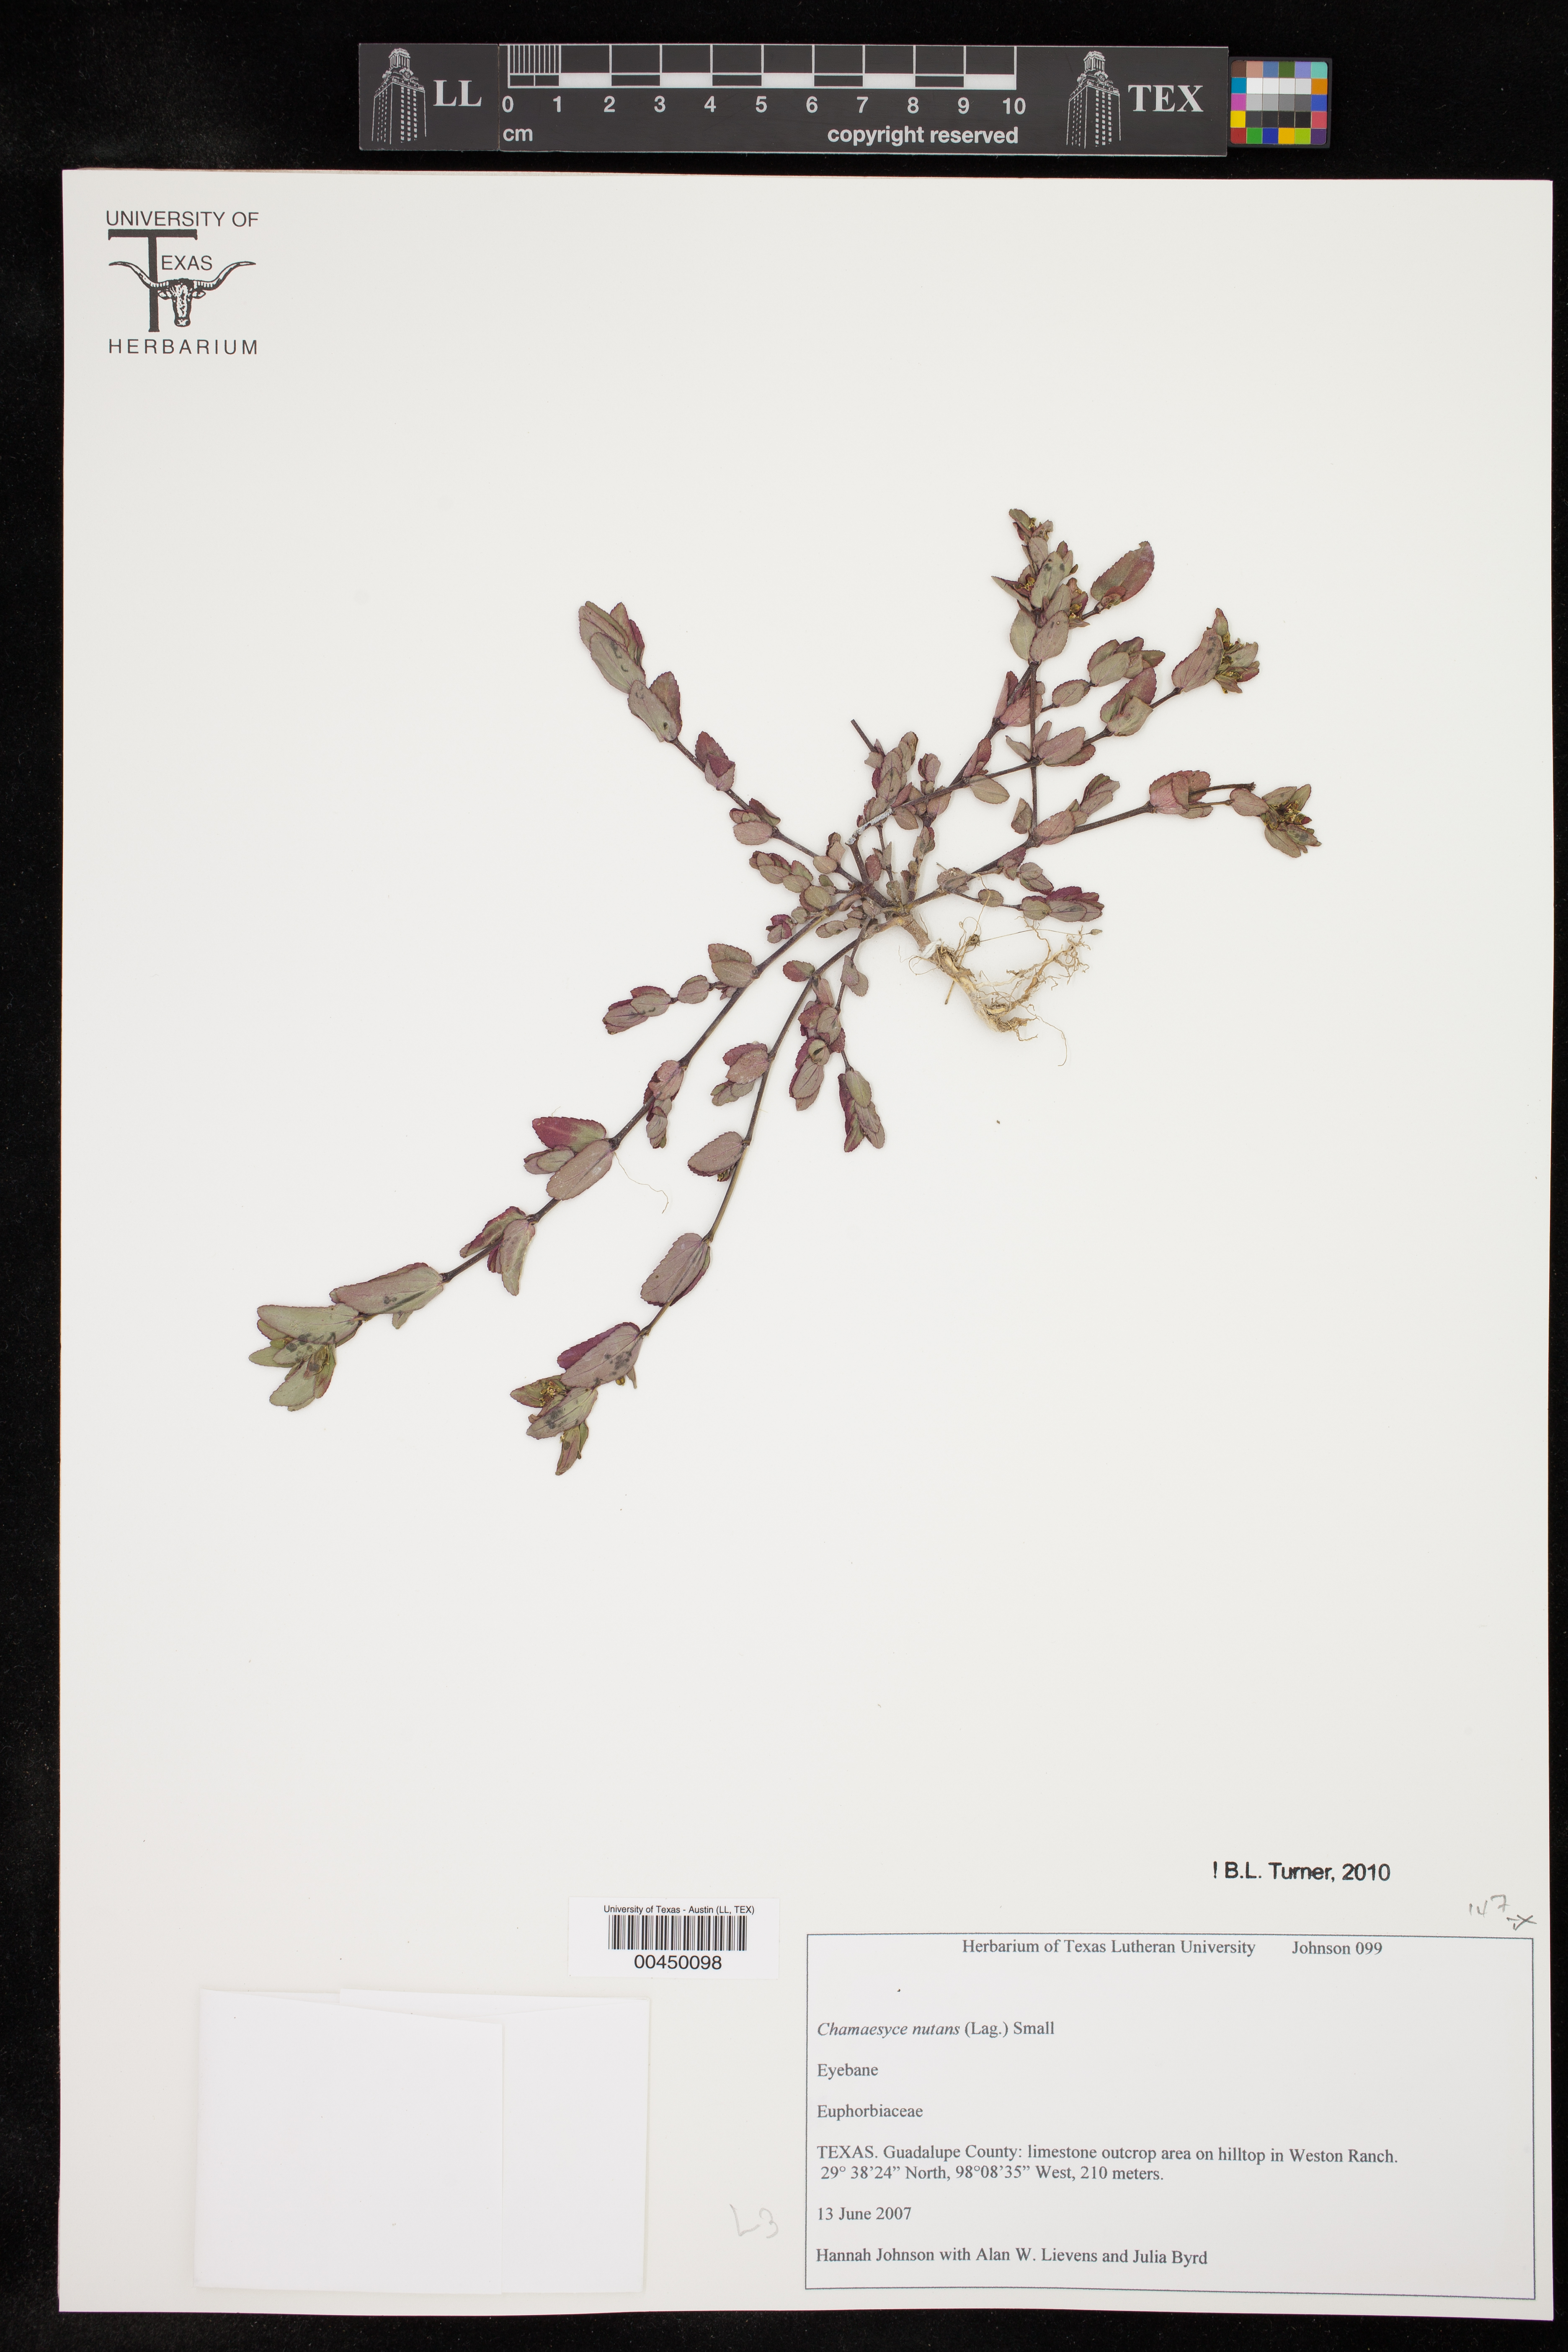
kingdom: Plantae
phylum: Tracheophyta
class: Magnoliopsida
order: Malpighiales
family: Euphorbiaceae
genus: Euphorbia
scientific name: Euphorbia nutans
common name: Eyebane
